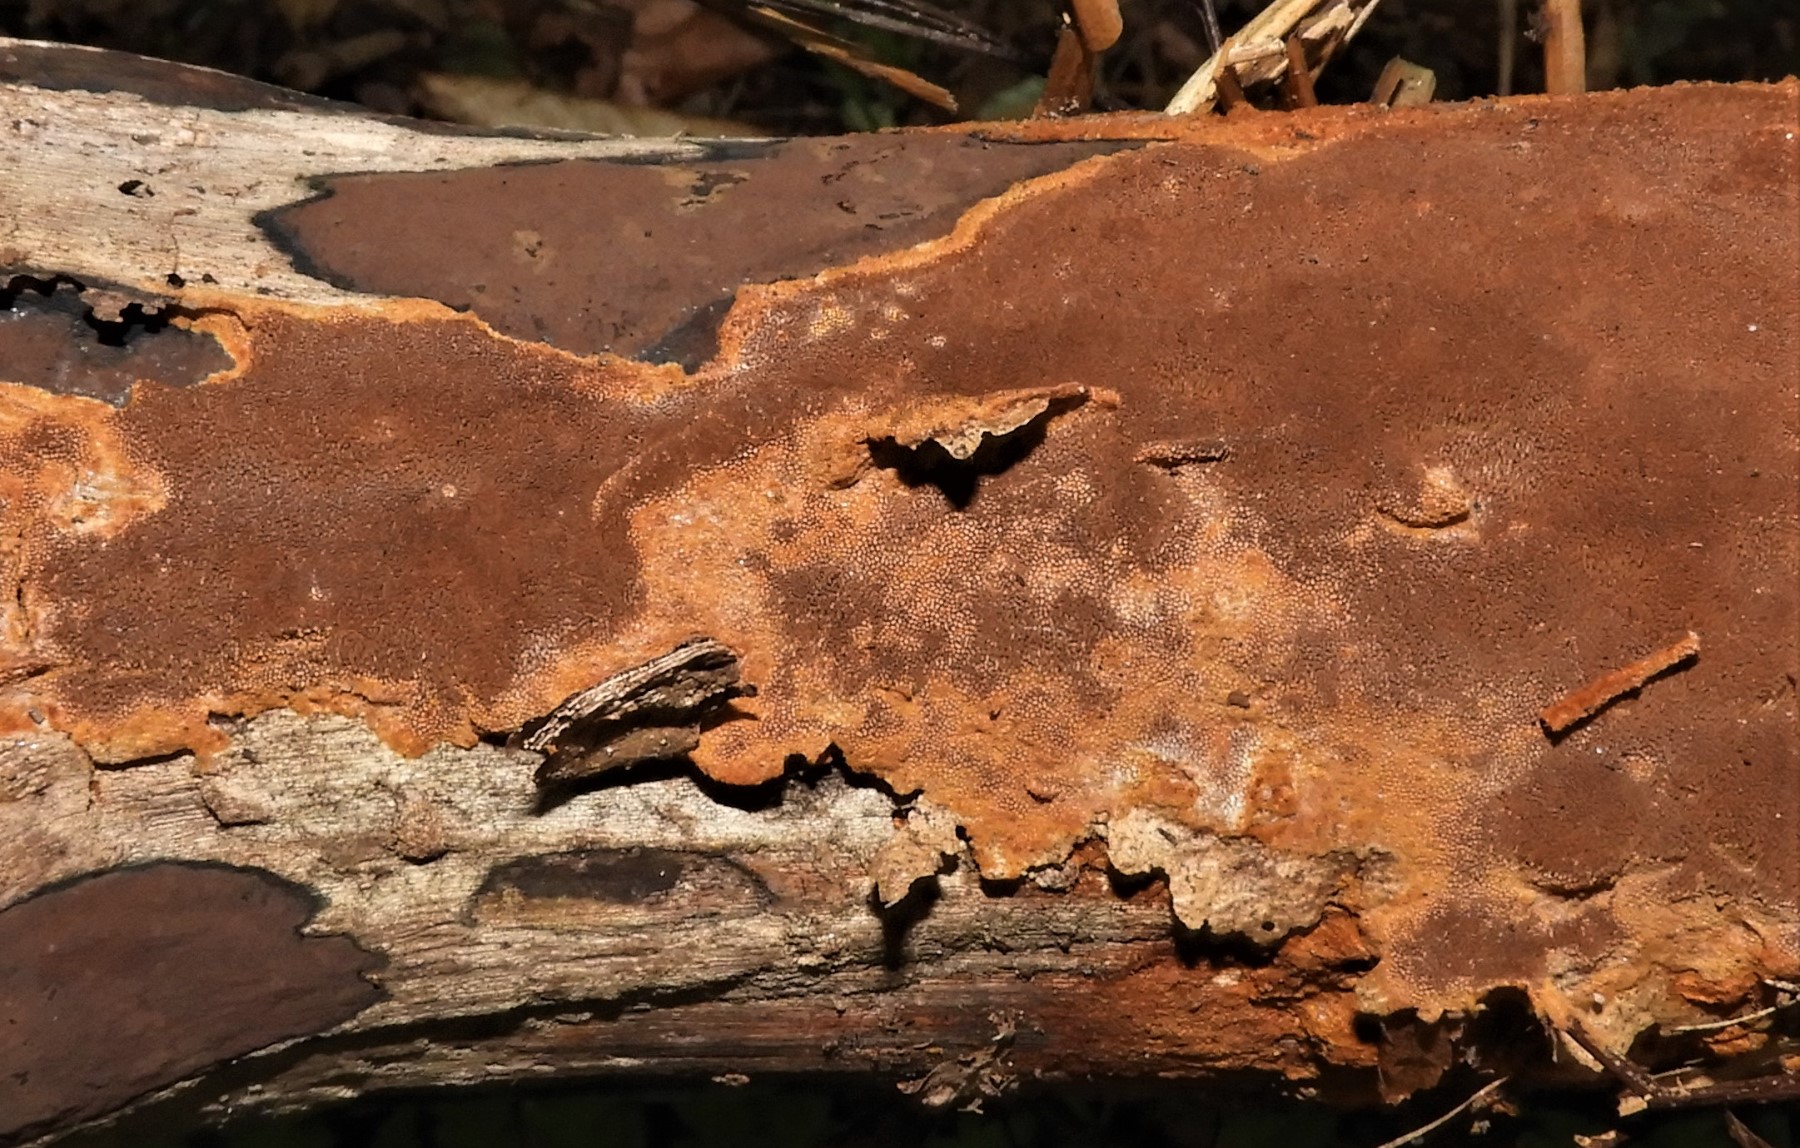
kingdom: Fungi
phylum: Basidiomycota
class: Agaricomycetes
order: Hymenochaetales
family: Hymenochaetaceae
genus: Fuscoporia
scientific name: Fuscoporia ferrea
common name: skorpe-ildporesvamp
